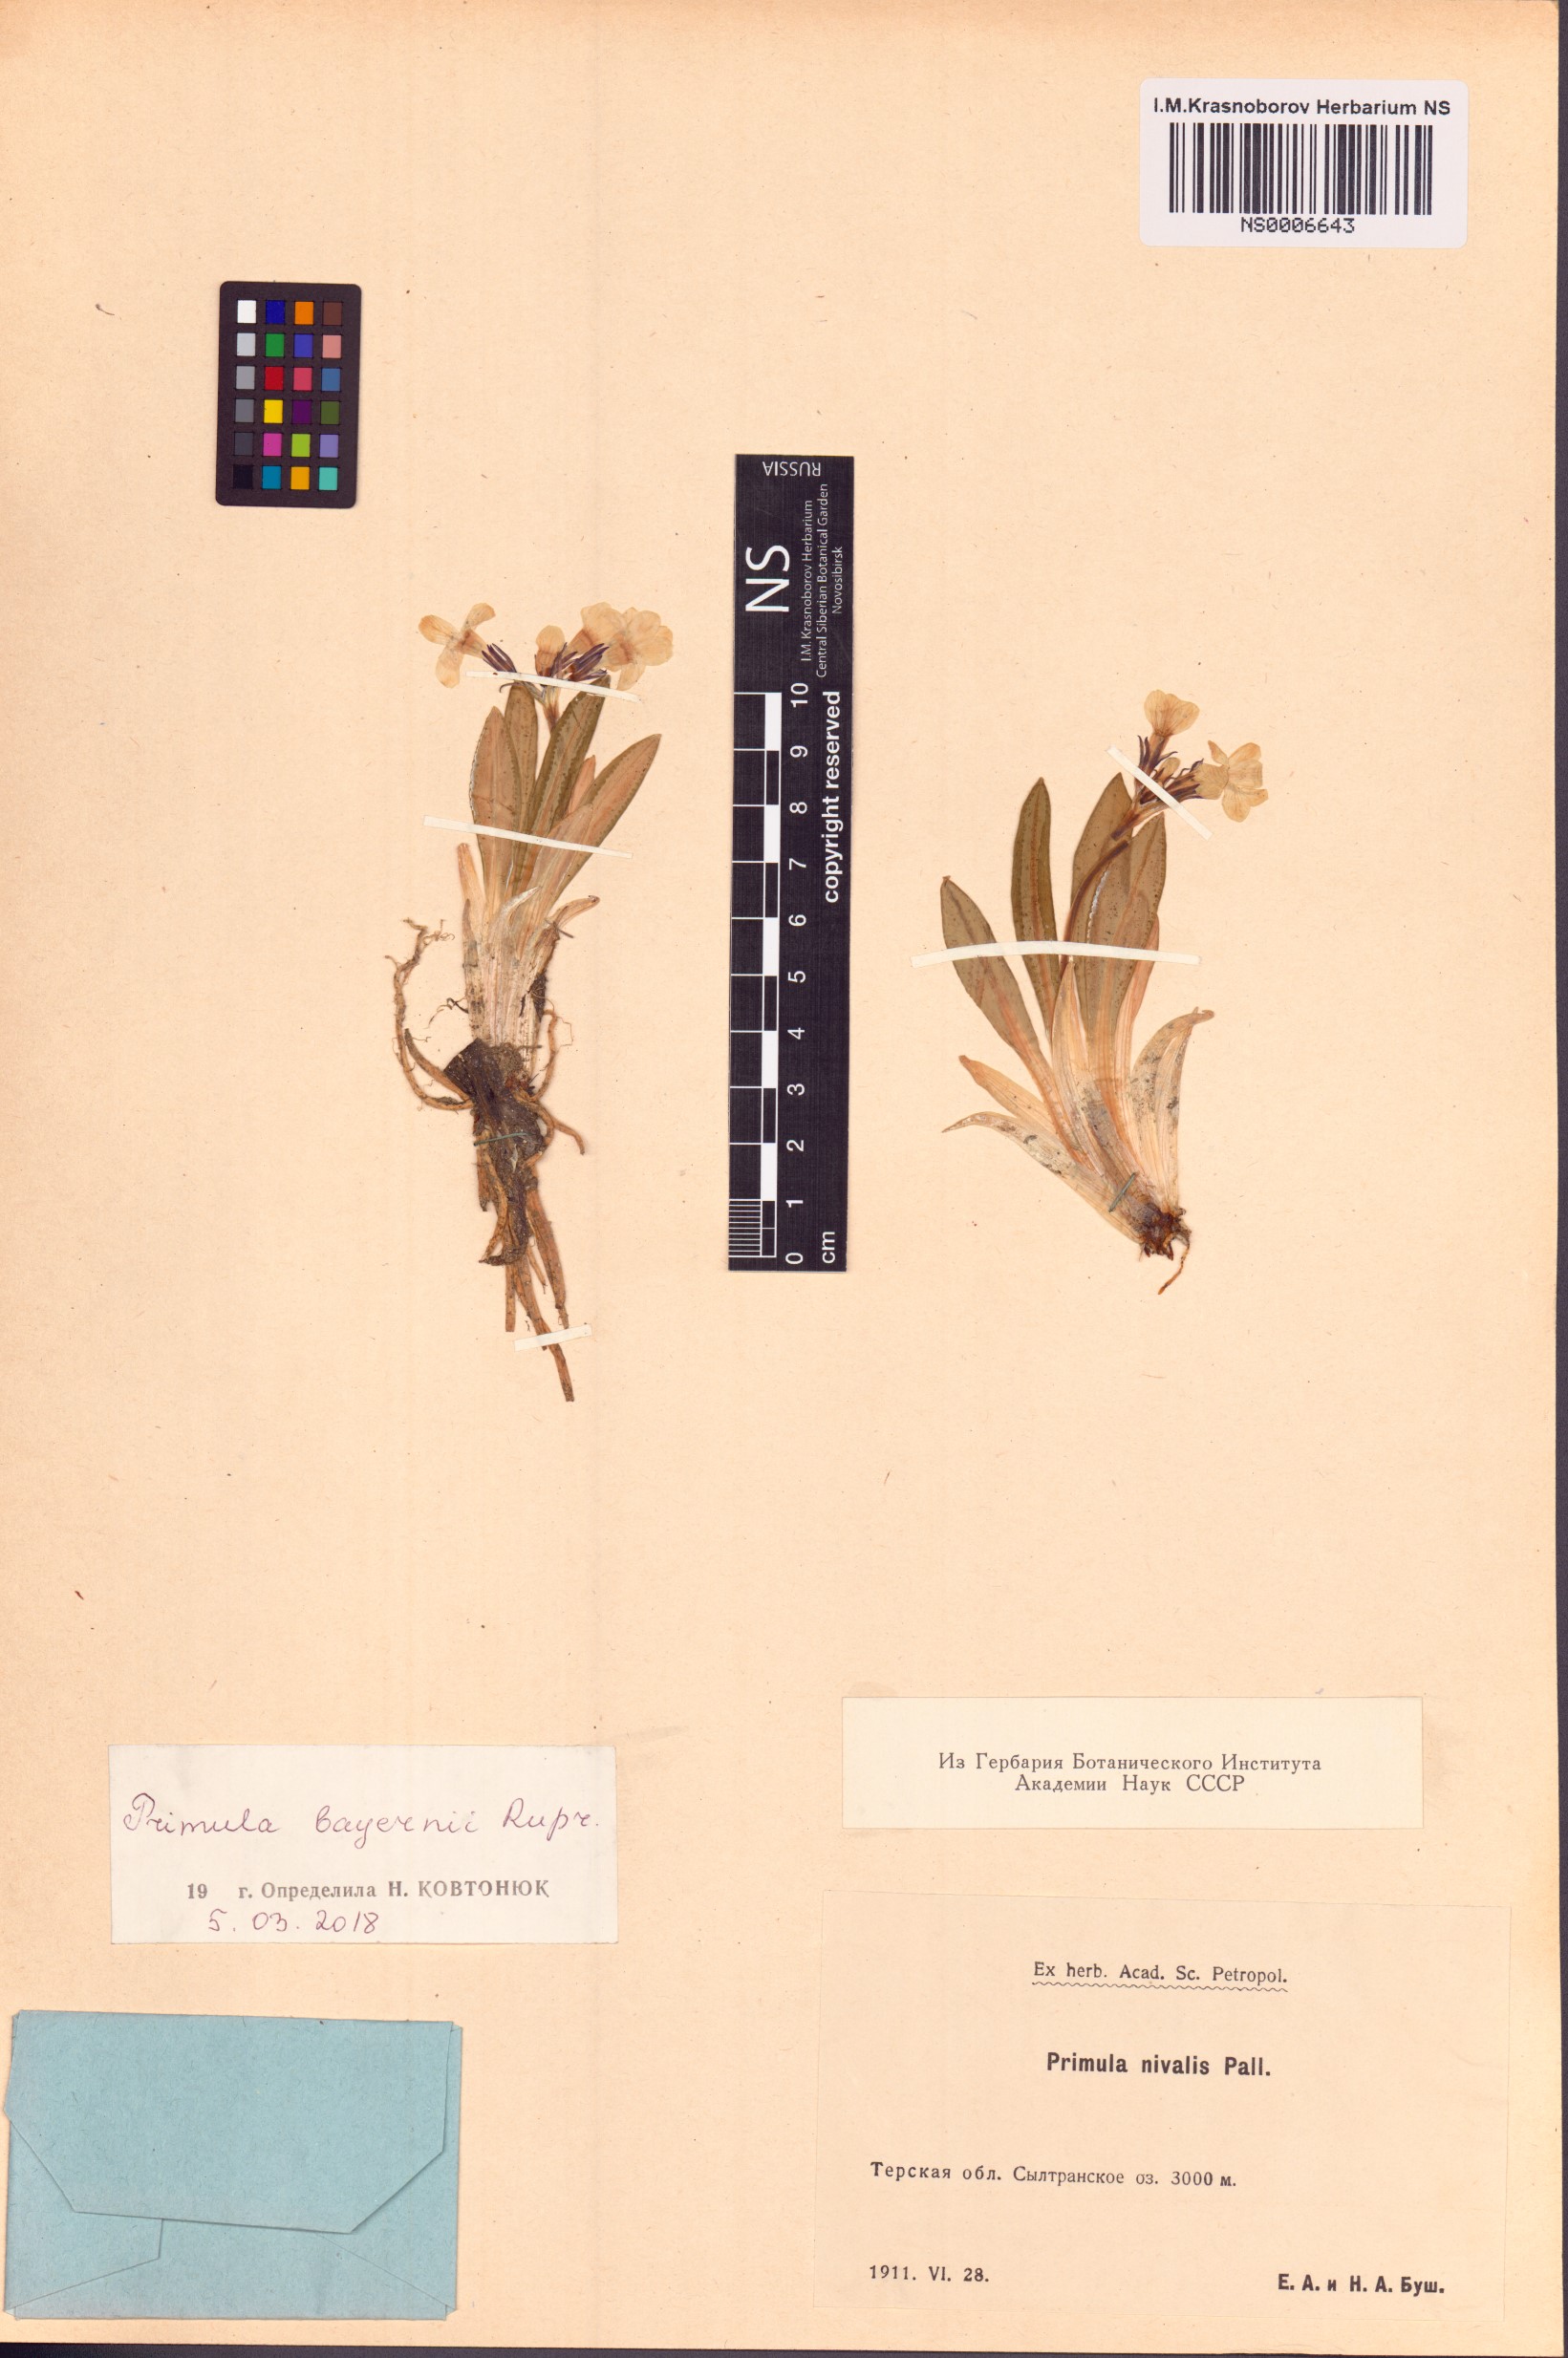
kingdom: Plantae
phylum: Tracheophyta
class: Magnoliopsida
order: Ericales
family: Primulaceae
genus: Primula
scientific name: Primula crassifolia
